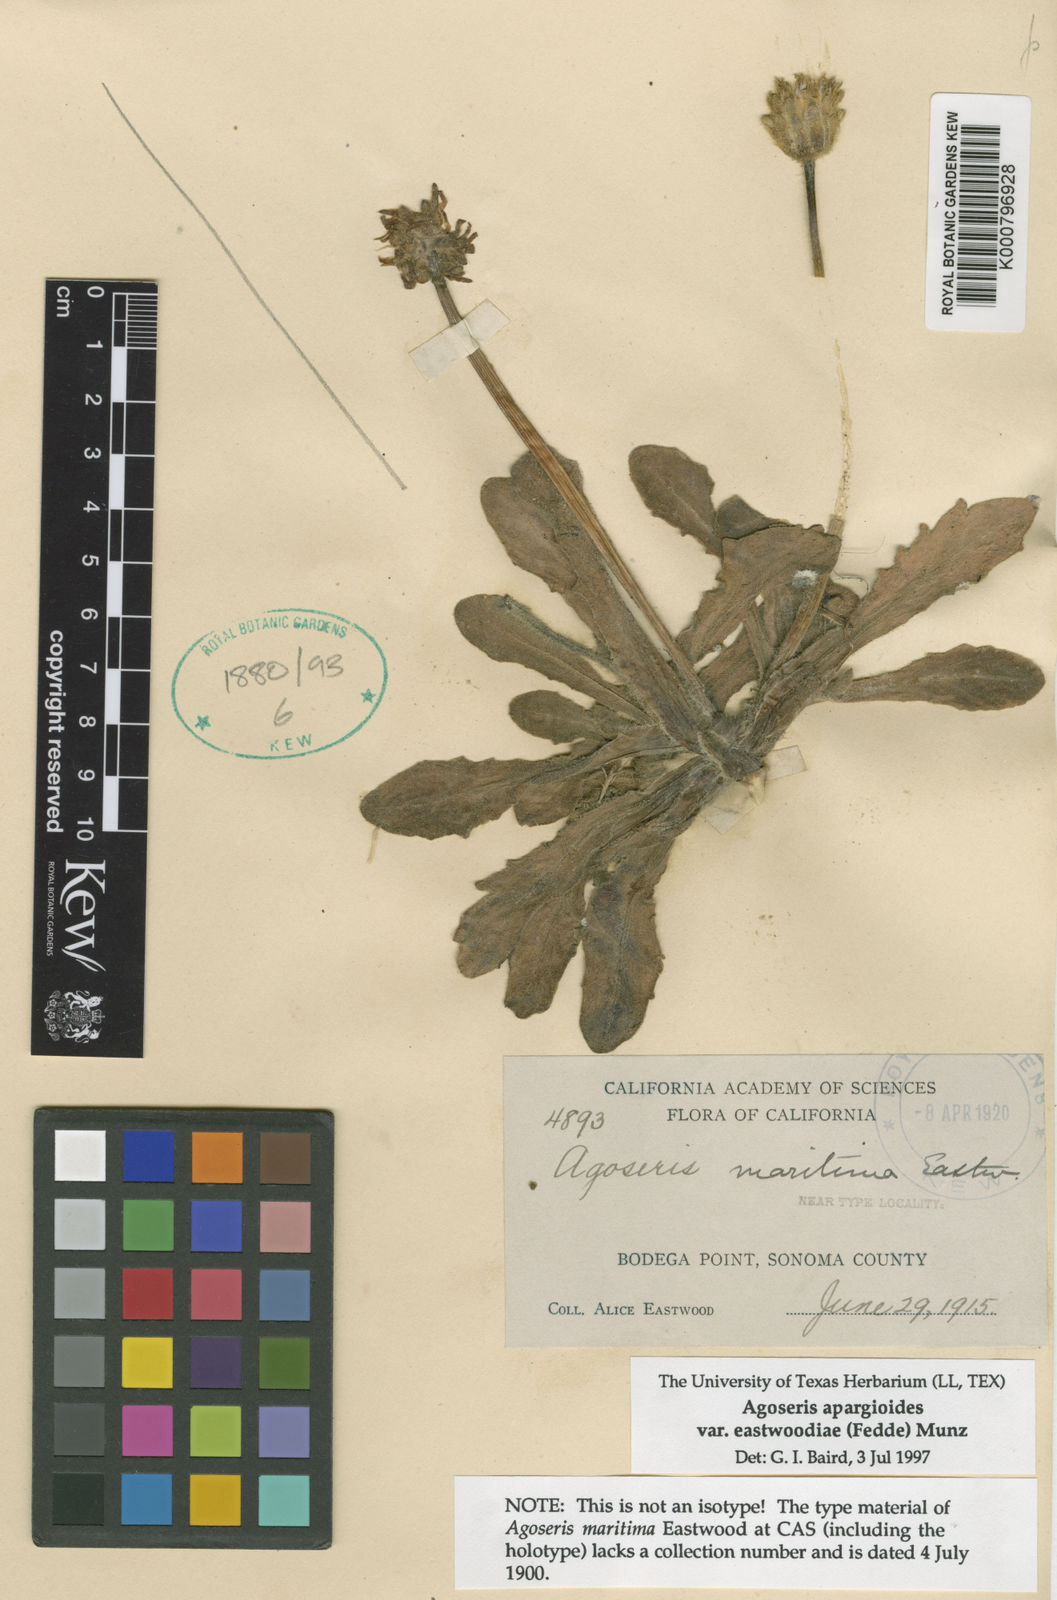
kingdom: Plantae
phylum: Tracheophyta
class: Magnoliopsida
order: Asterales
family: Asteraceae
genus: Agoseris
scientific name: Agoseris
